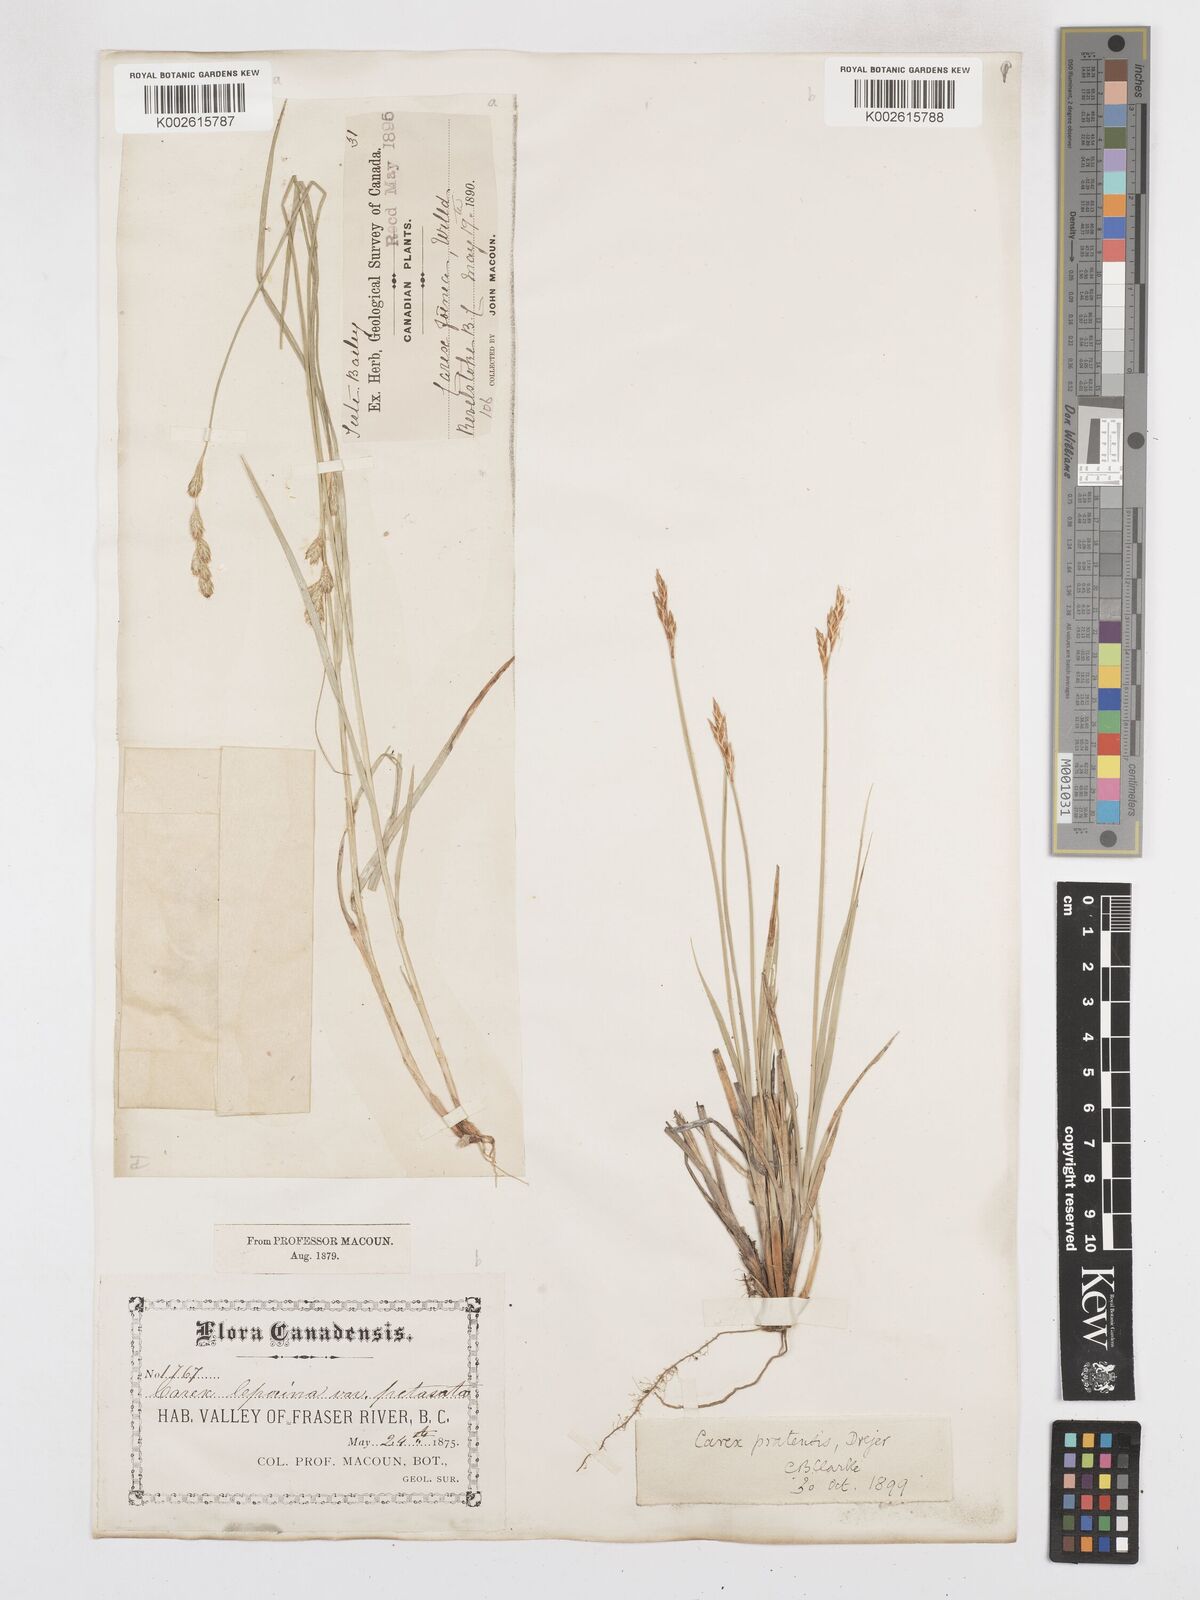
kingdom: Plantae
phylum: Tracheophyta
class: Liliopsida
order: Poales
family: Cyperaceae
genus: Carex
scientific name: Carex praticola
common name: Large-fruited oval sedge
